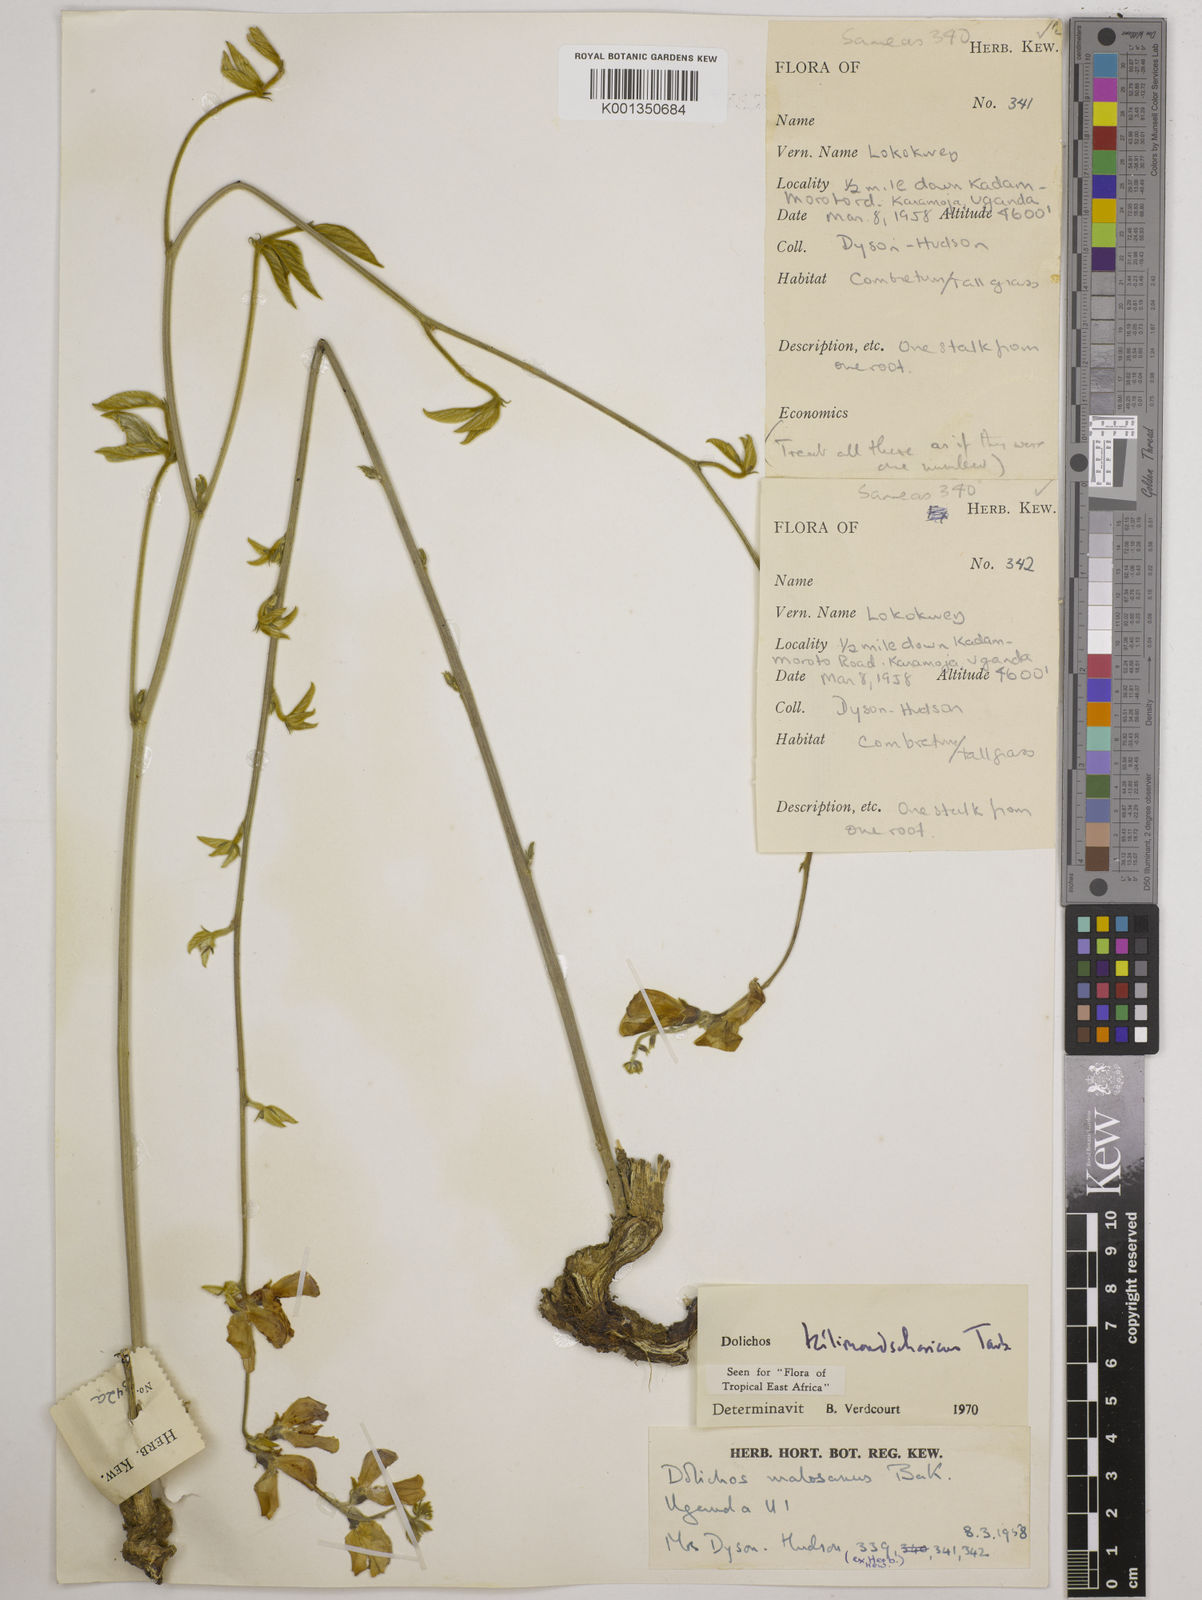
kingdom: Plantae
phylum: Tracheophyta
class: Magnoliopsida
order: Fabales
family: Fabaceae
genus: Dolichos
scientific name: Dolichos kilimandscharicus
